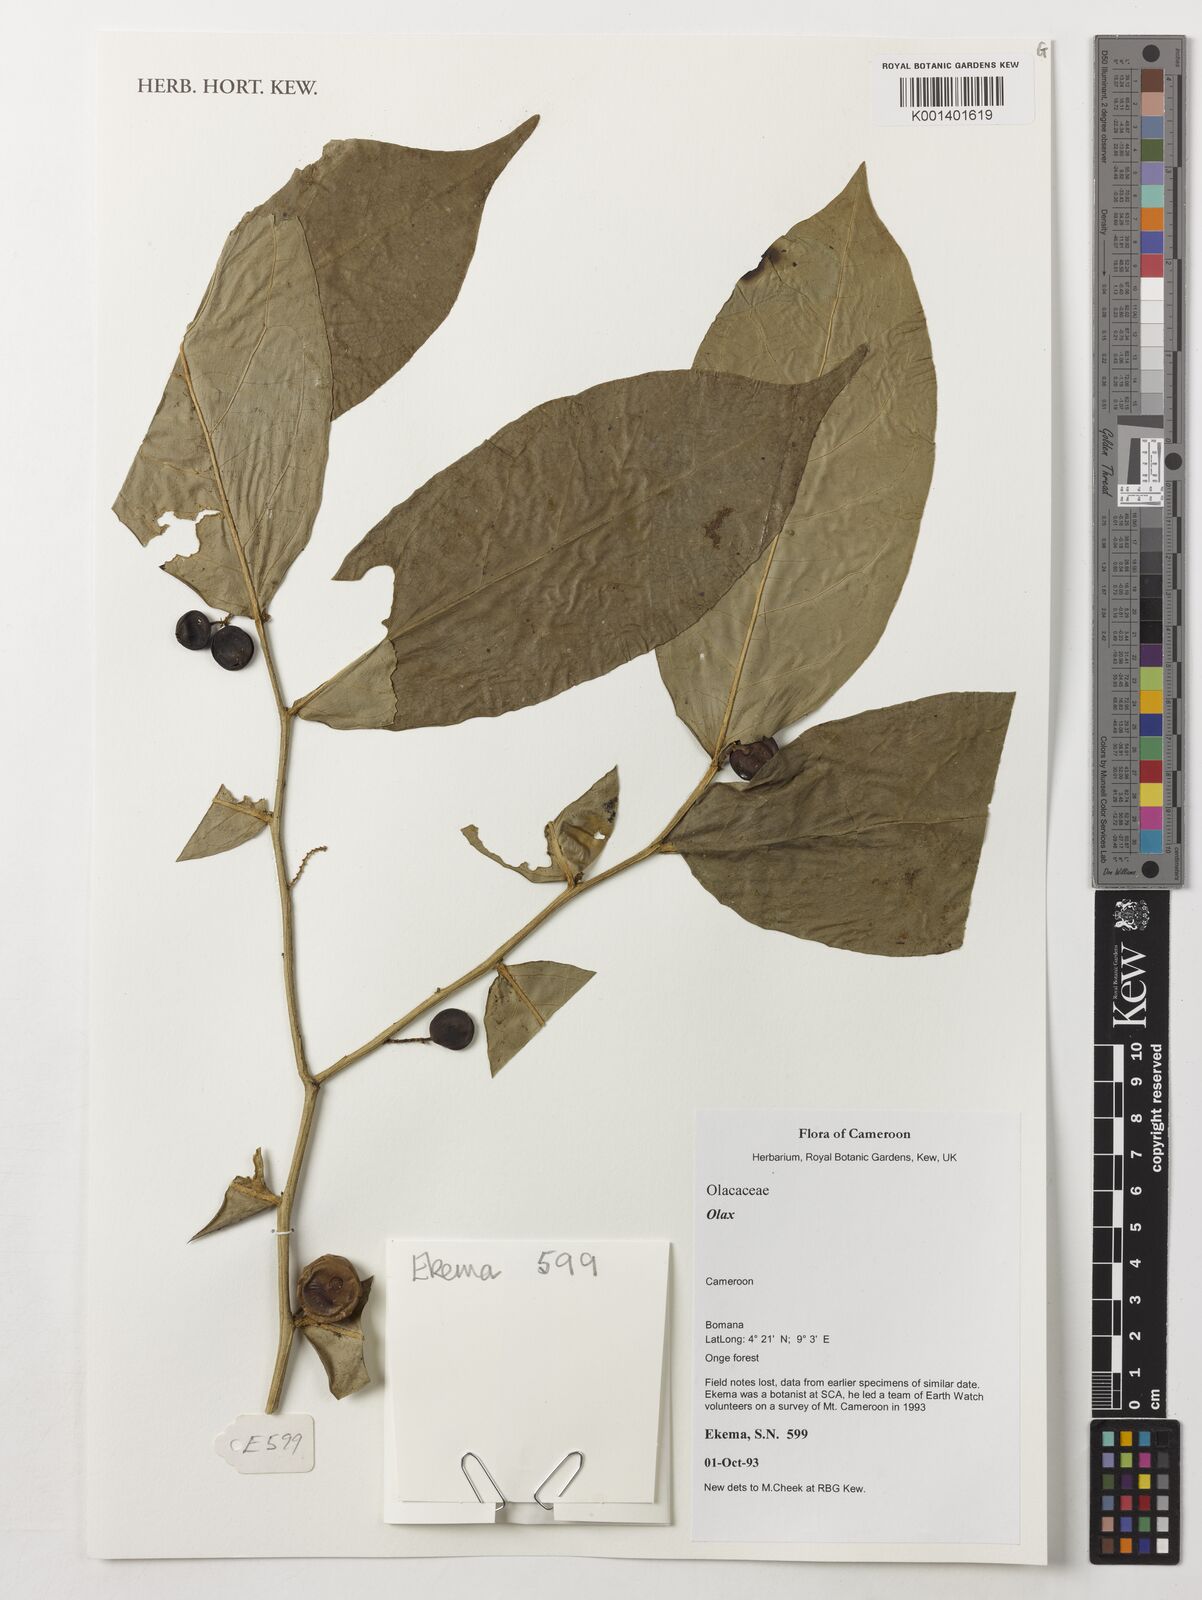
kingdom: Plantae
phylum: Tracheophyta
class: Magnoliopsida
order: Santalales
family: Olacaceae
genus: Olax
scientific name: Olax
